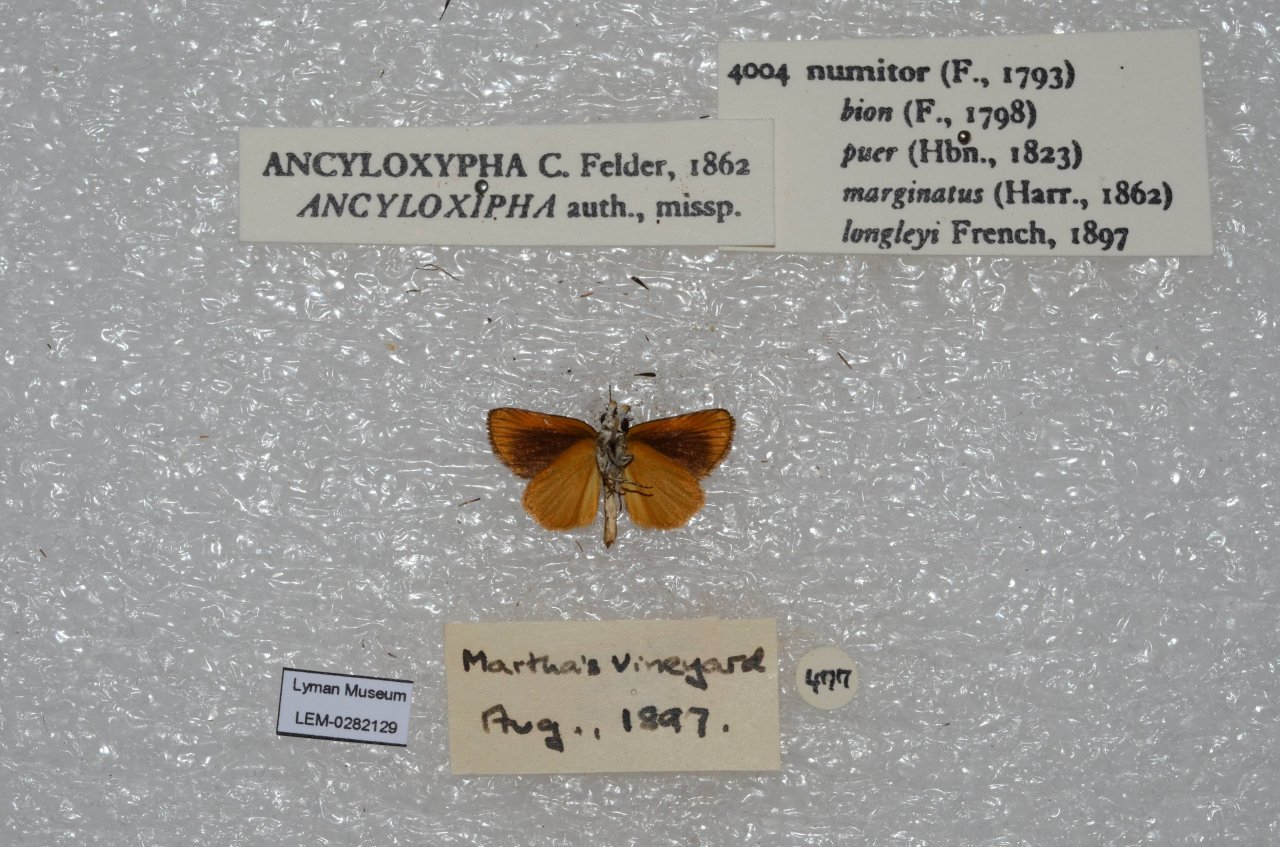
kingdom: Animalia
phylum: Arthropoda
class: Insecta
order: Lepidoptera
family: Hesperiidae
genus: Ancyloxypha
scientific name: Ancyloxypha numitor
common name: Least Skipper
